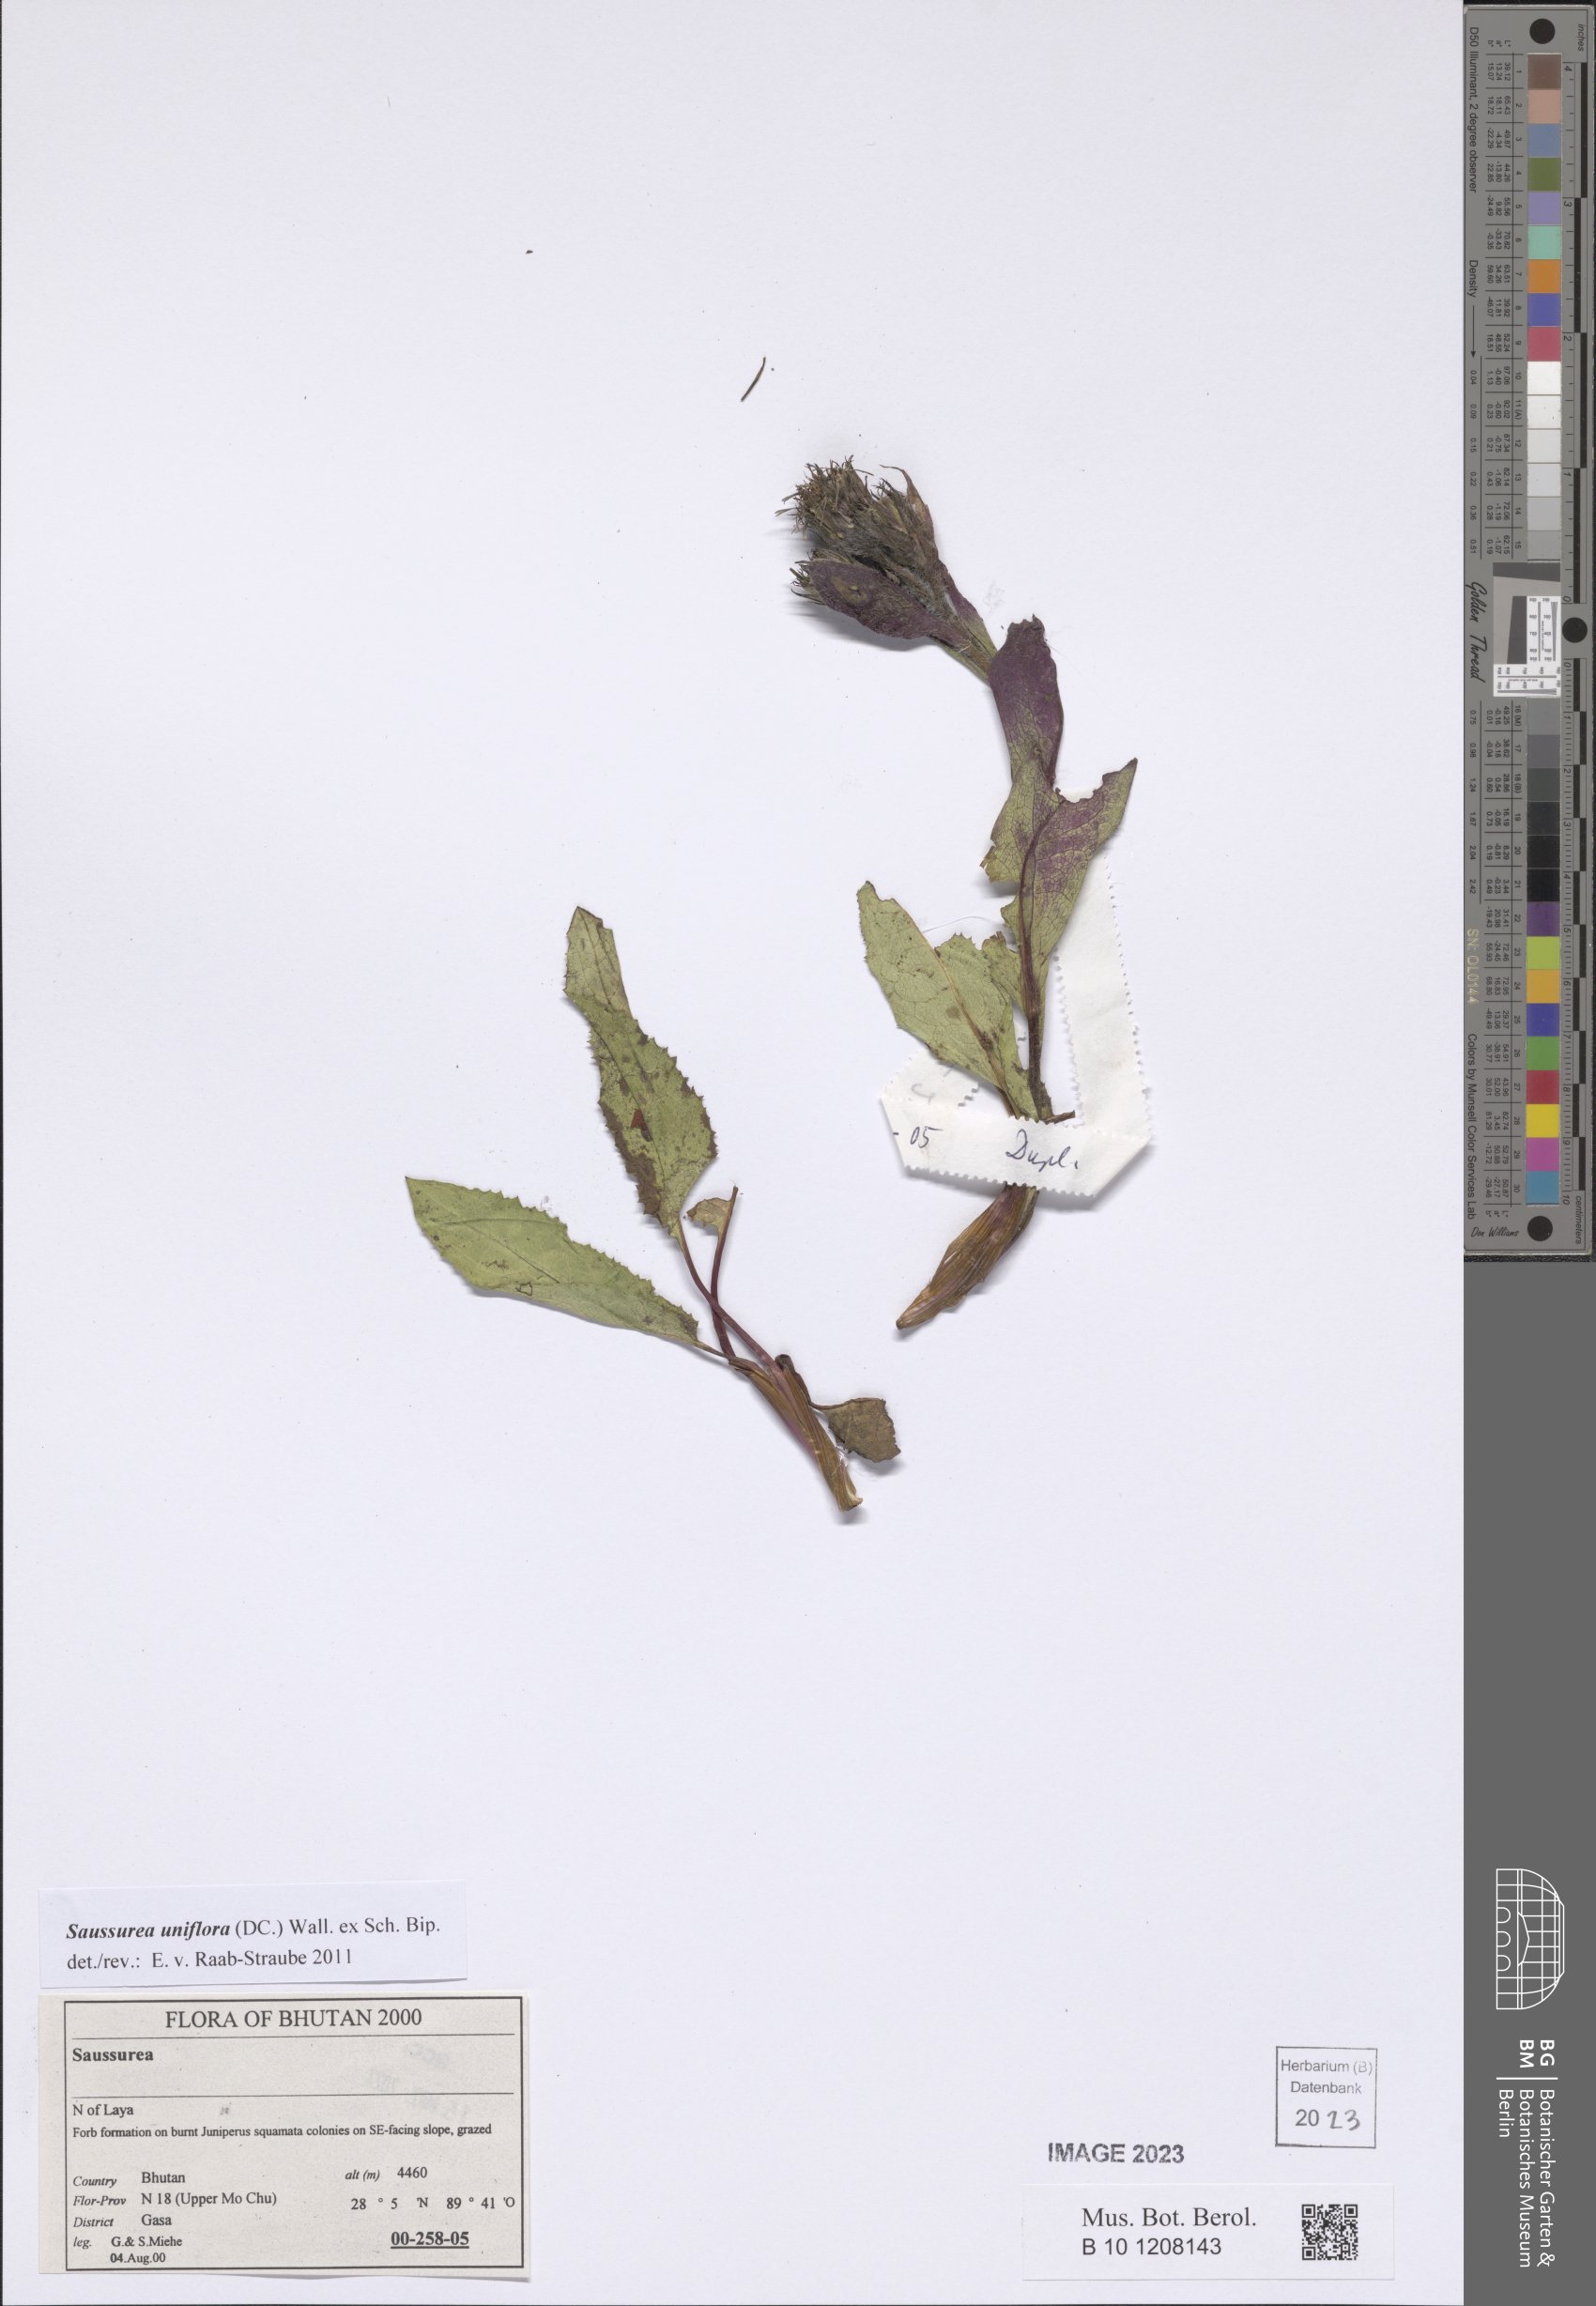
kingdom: Plantae
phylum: Tracheophyta
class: Magnoliopsida
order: Asterales
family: Asteraceae
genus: Saussurea
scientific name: Saussurea uniflora
